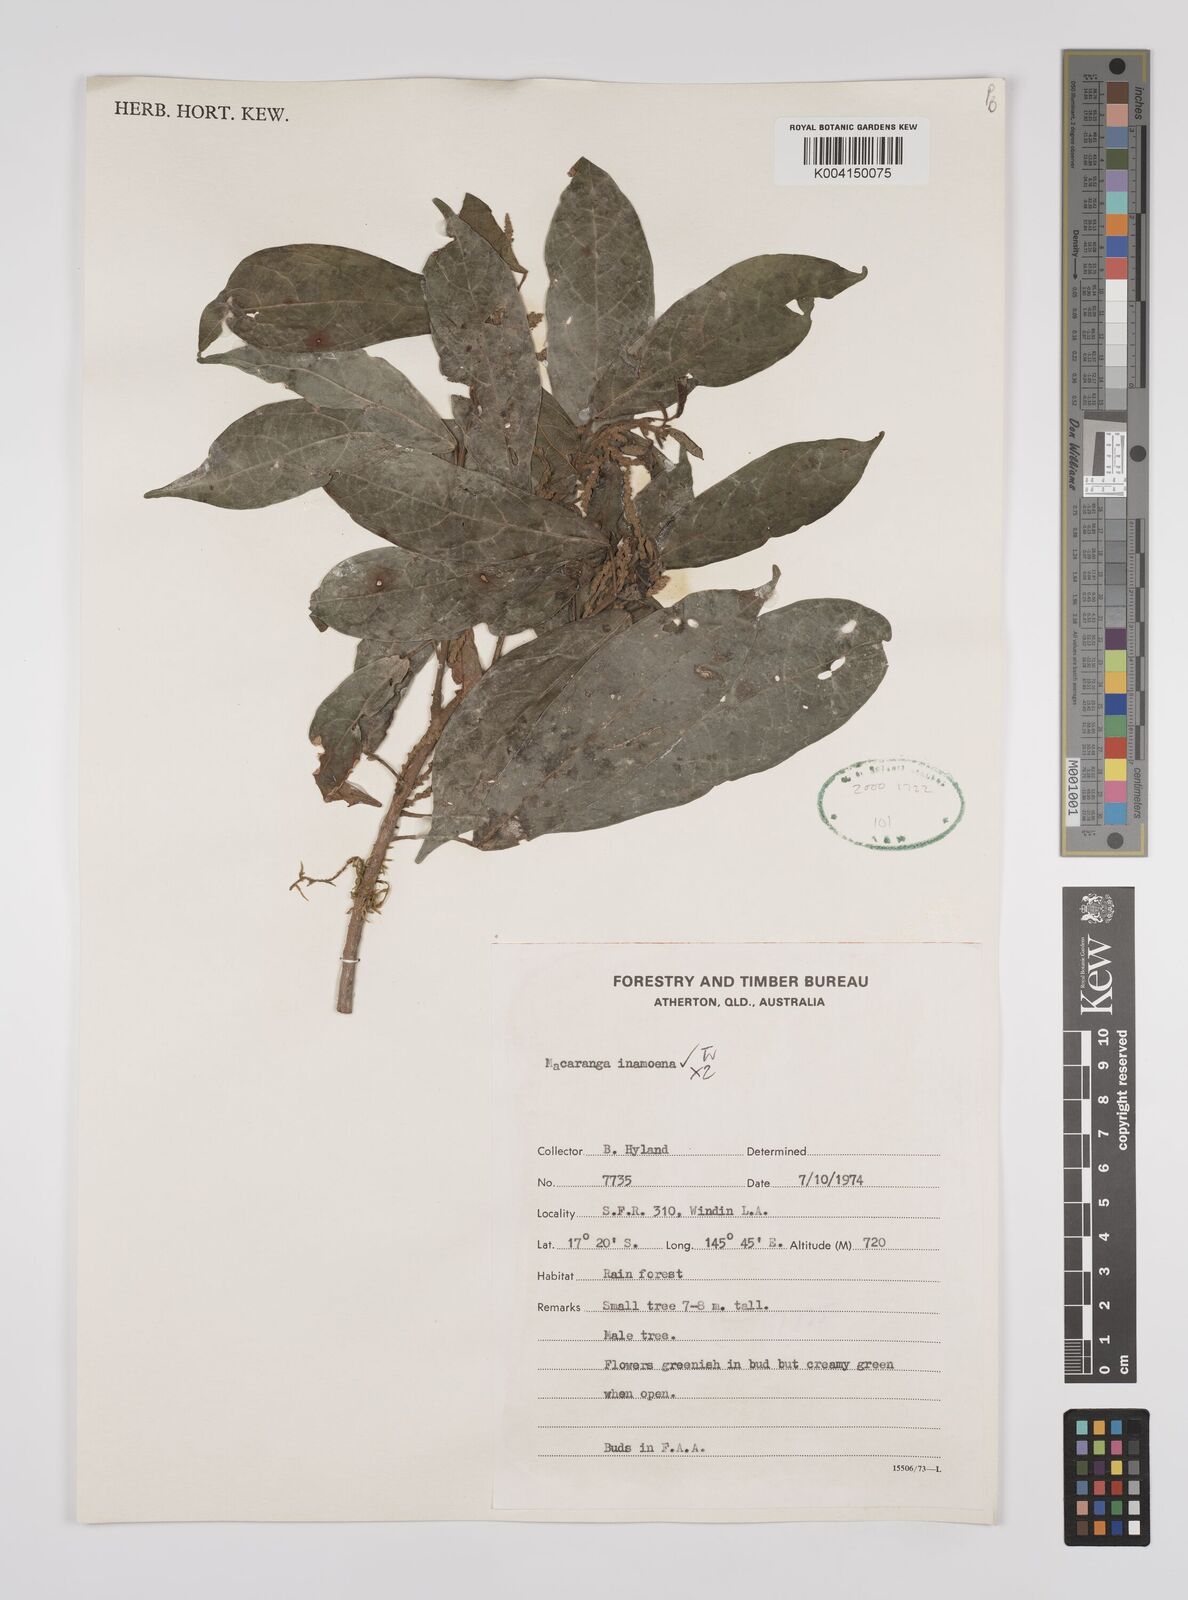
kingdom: Plantae
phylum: Tracheophyta
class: Magnoliopsida
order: Malpighiales
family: Euphorbiaceae
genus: Macaranga
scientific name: Macaranga inamoena
